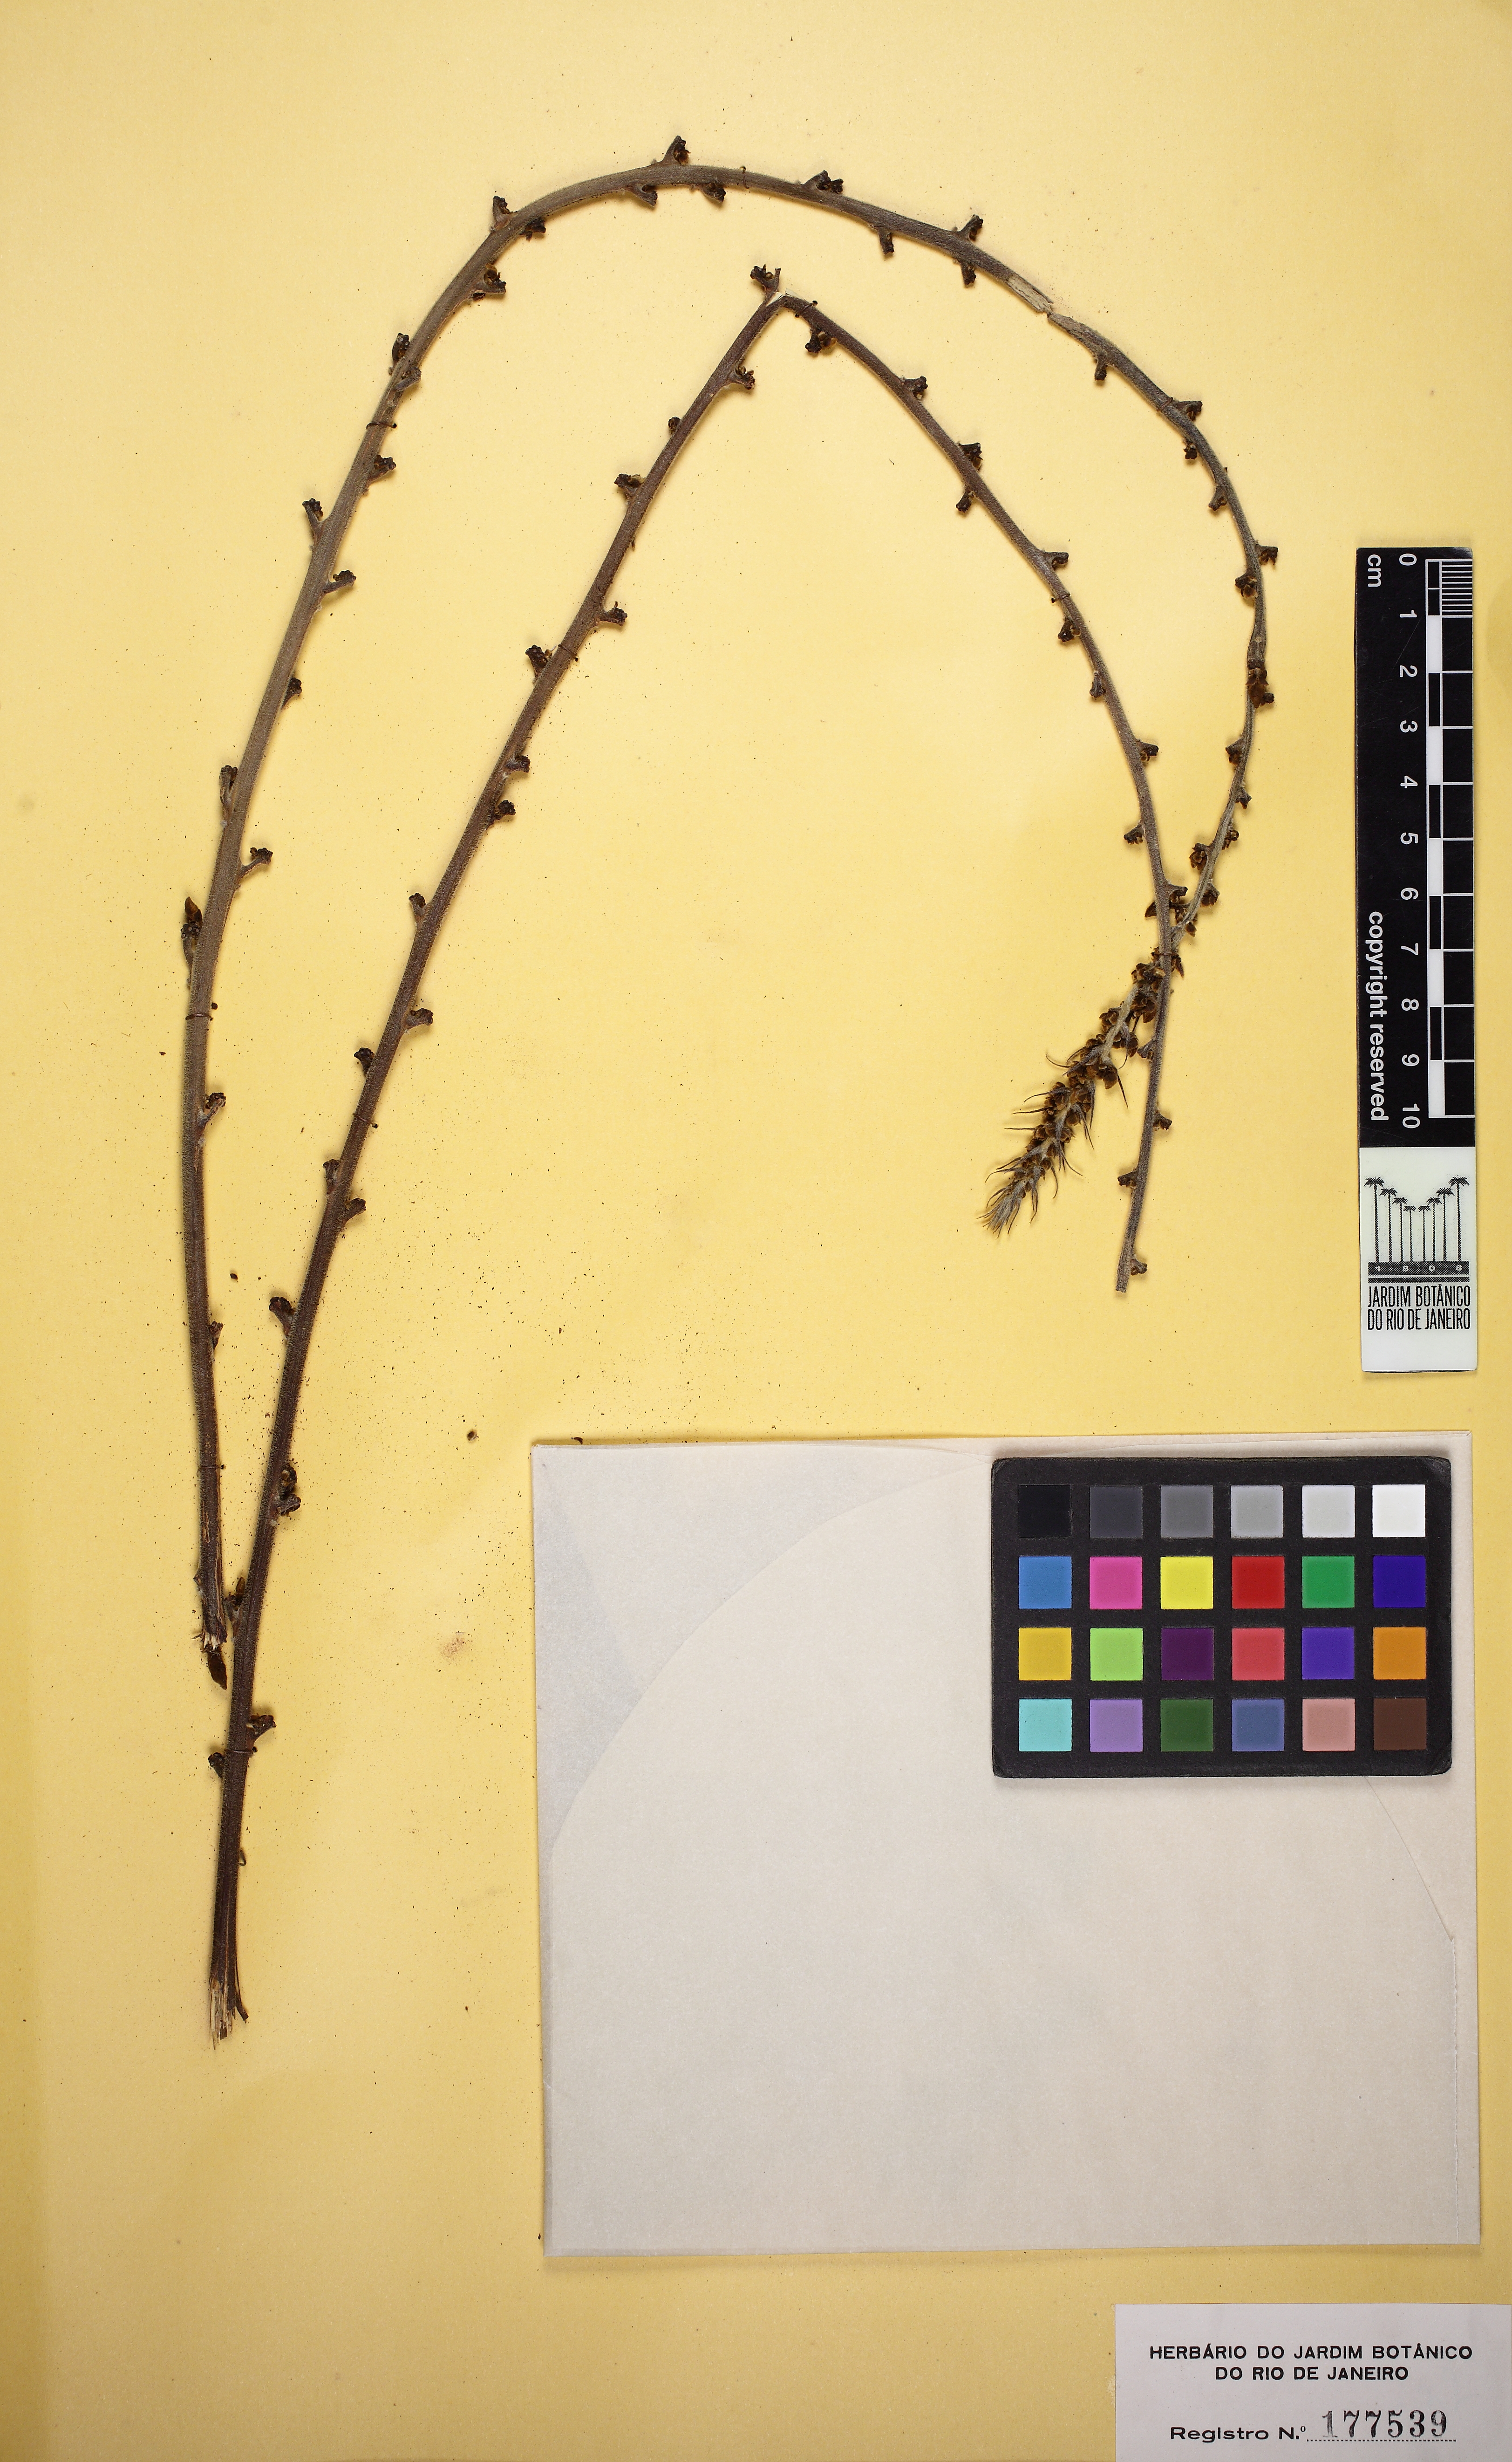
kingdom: Plantae
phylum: Tracheophyta
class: Magnoliopsida
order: Fabales
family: Fabaceae
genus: Macropsychanthus
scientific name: Macropsychanthus grandiflorus
